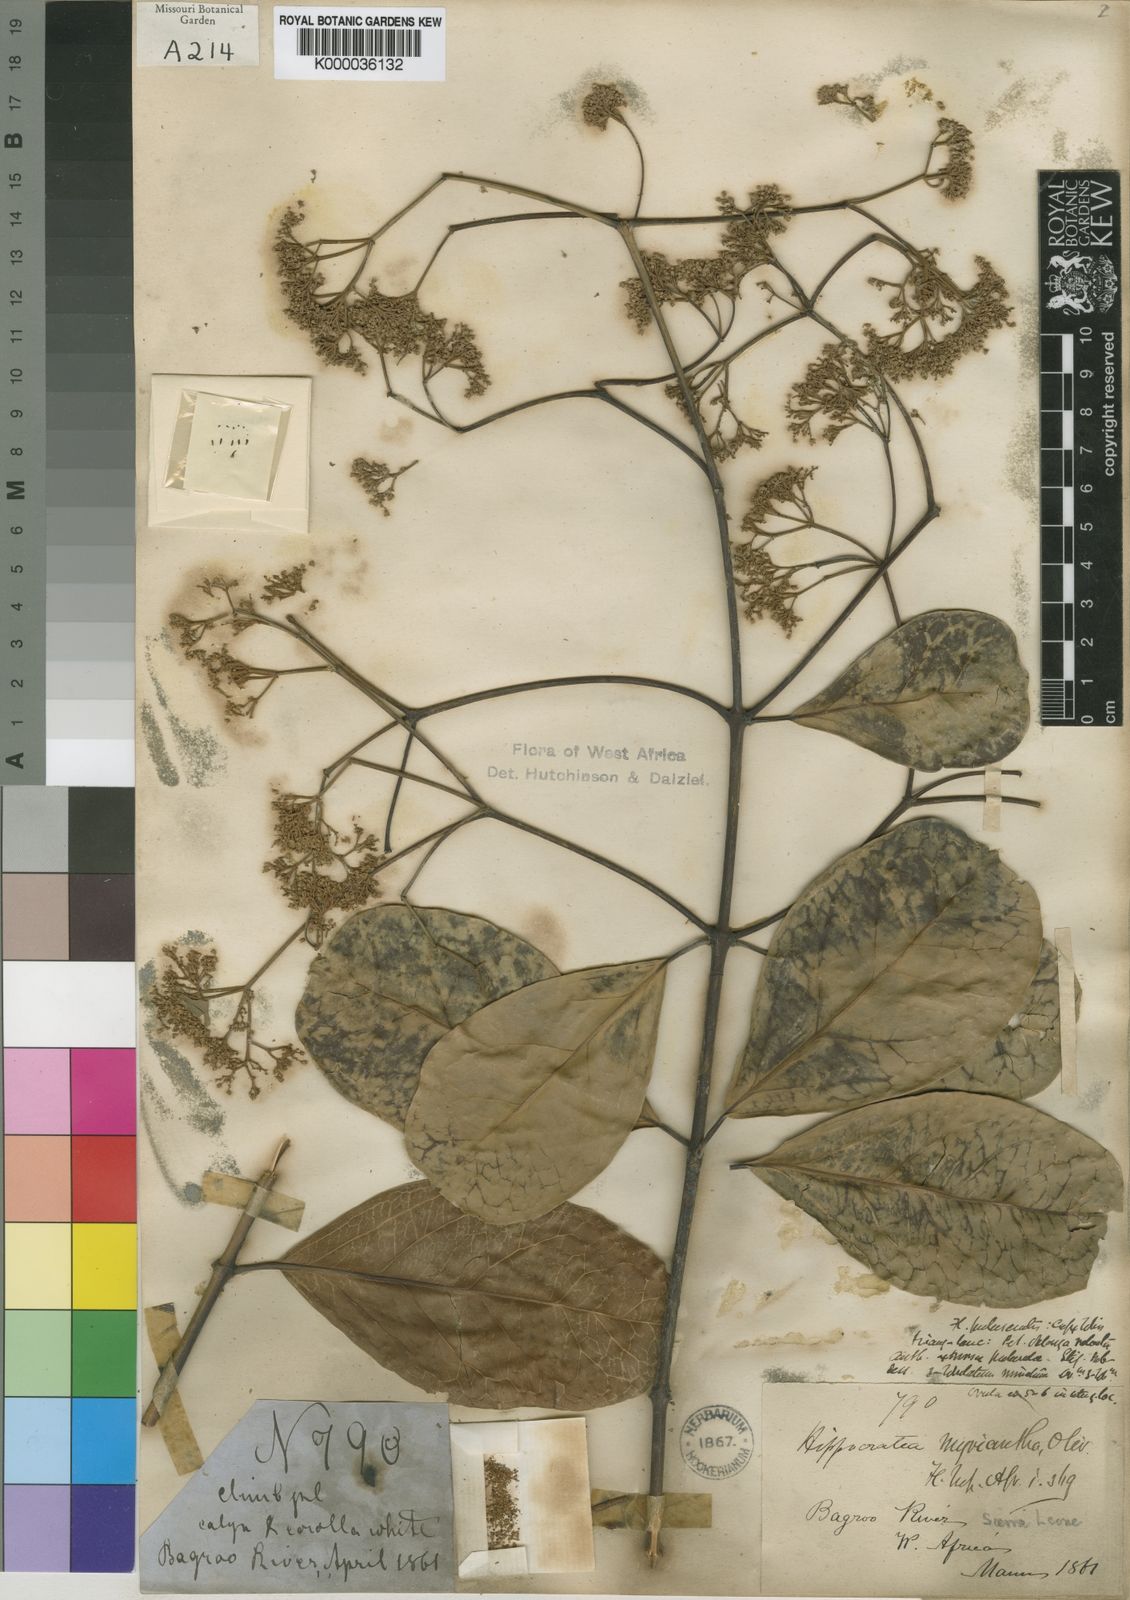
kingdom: Plantae
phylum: Tracheophyta
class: Magnoliopsida
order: Celastrales
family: Celastraceae
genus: Hippocratea
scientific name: Hippocratea myriantha
